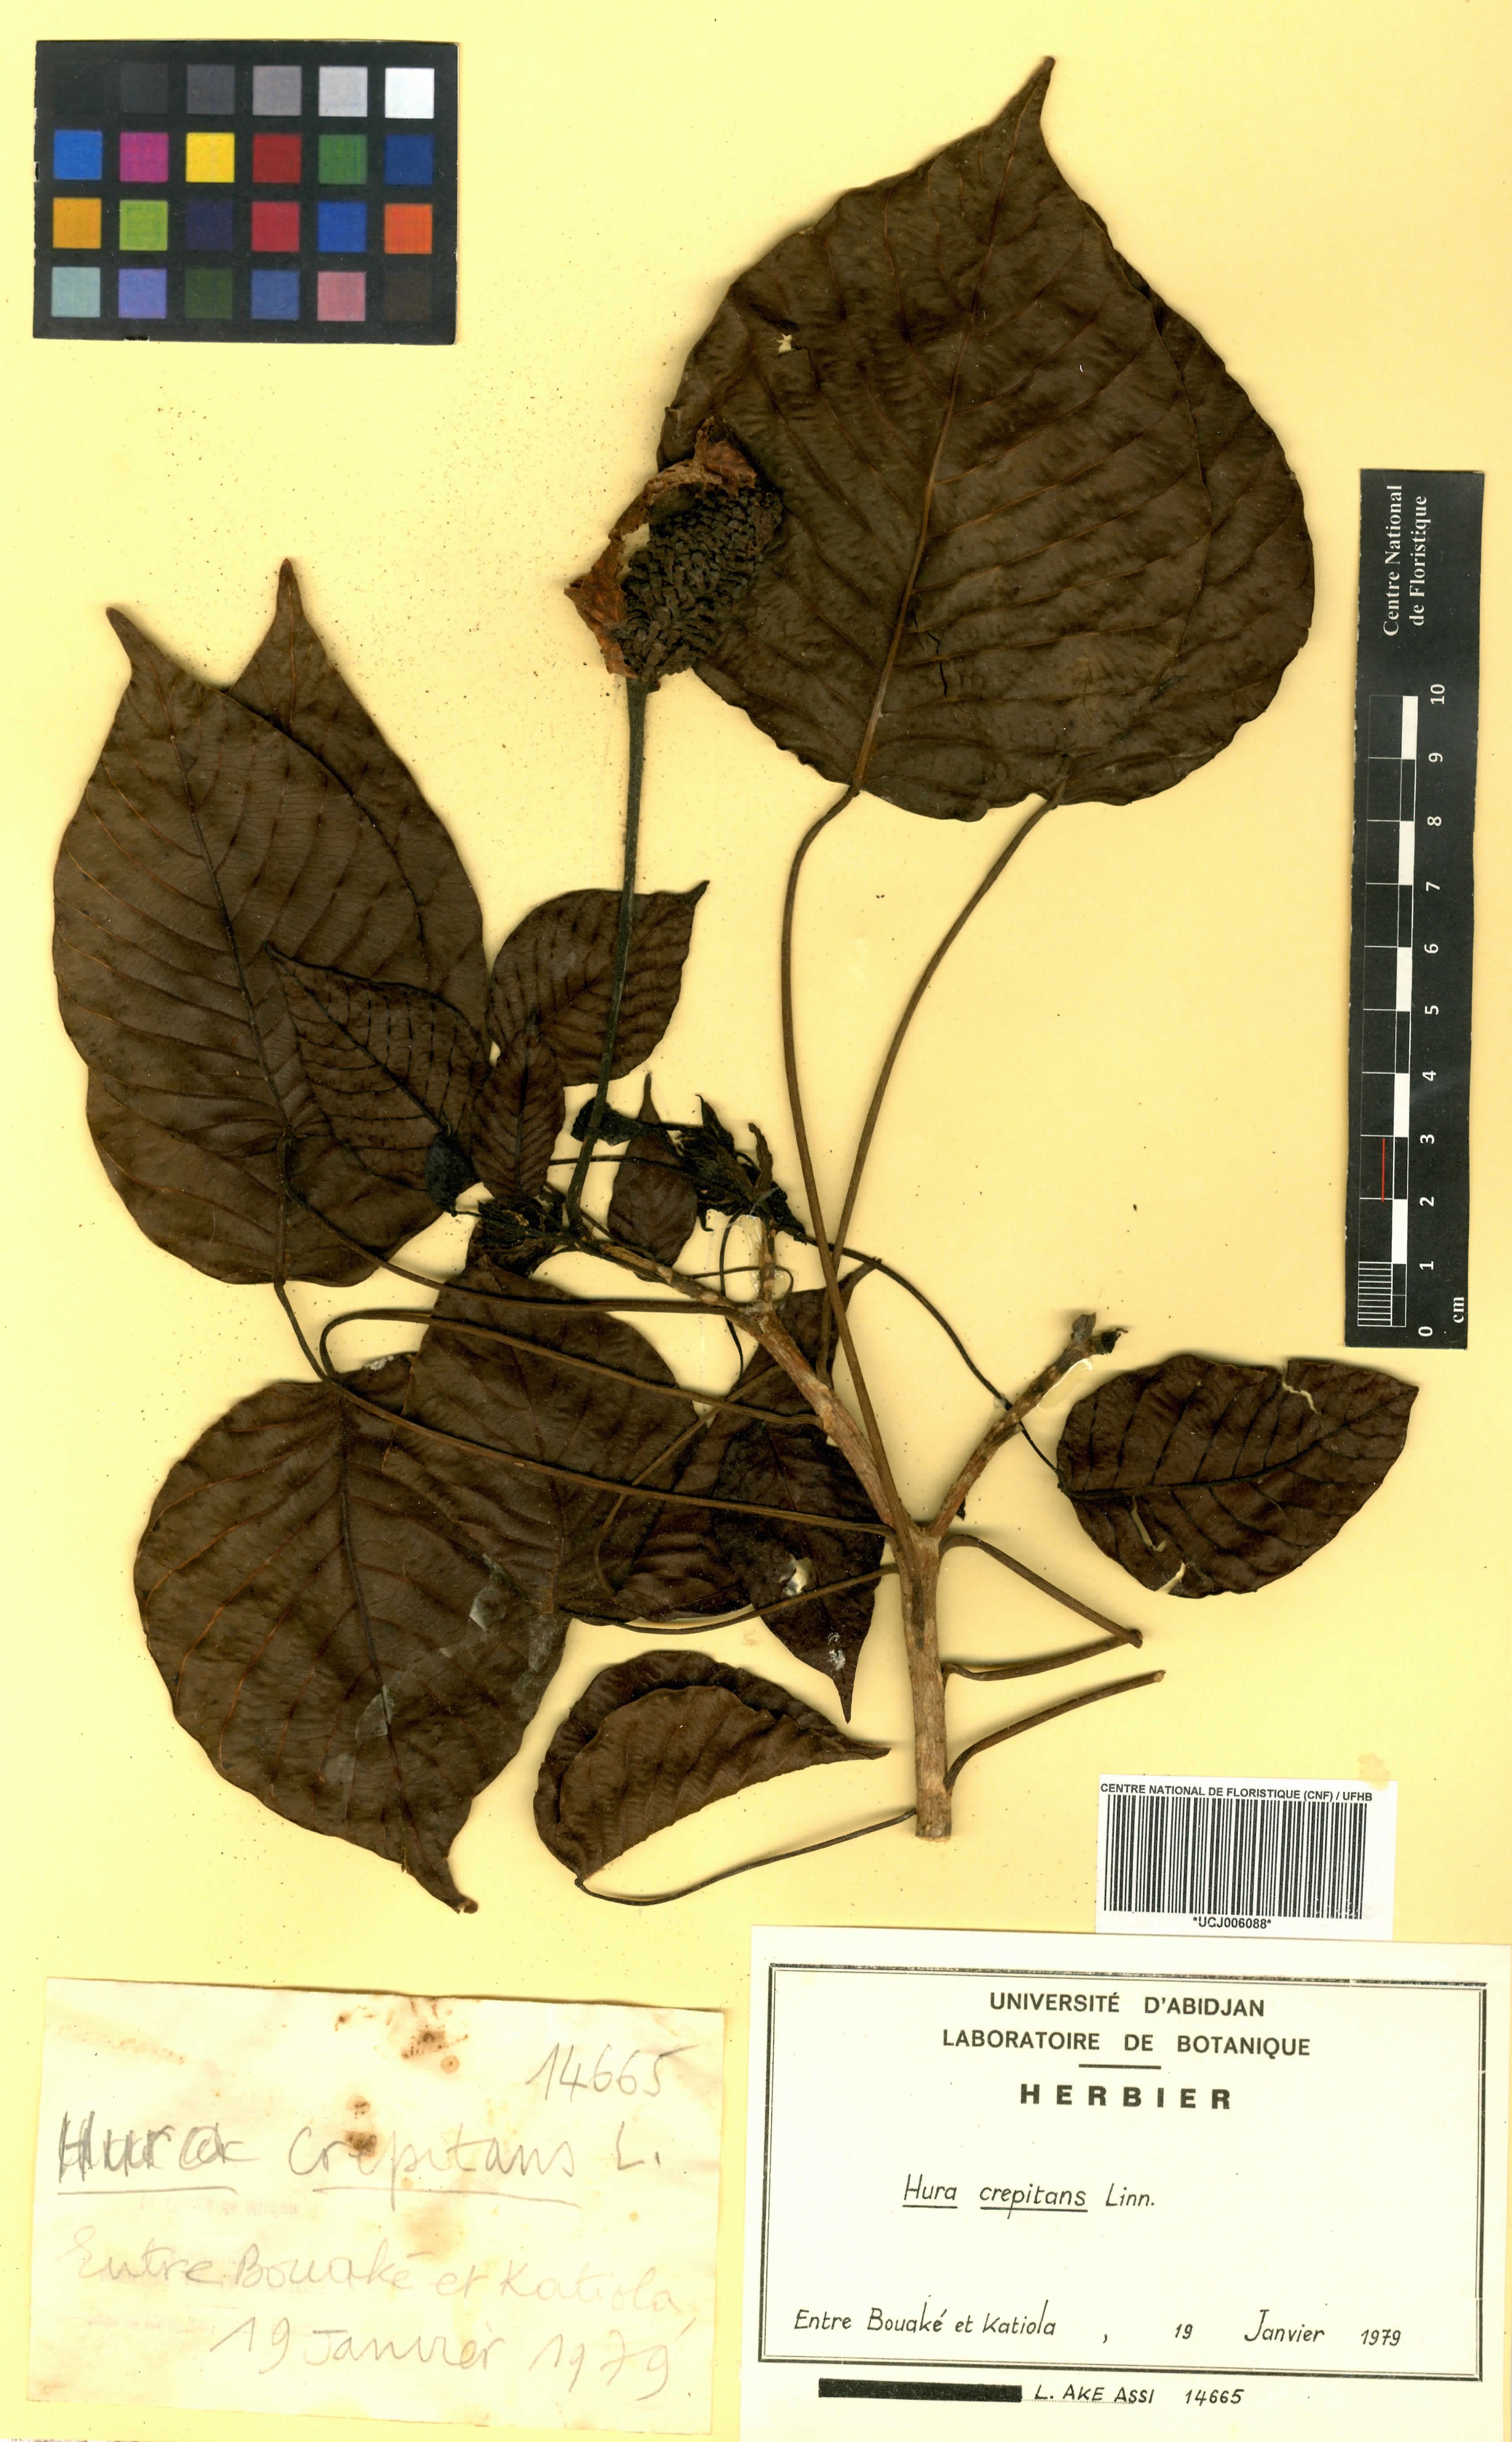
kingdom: Plantae
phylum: Tracheophyta
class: Magnoliopsida
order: Malpighiales
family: Euphorbiaceae
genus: Hura
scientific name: Hura crepitans
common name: Sandboxtree
